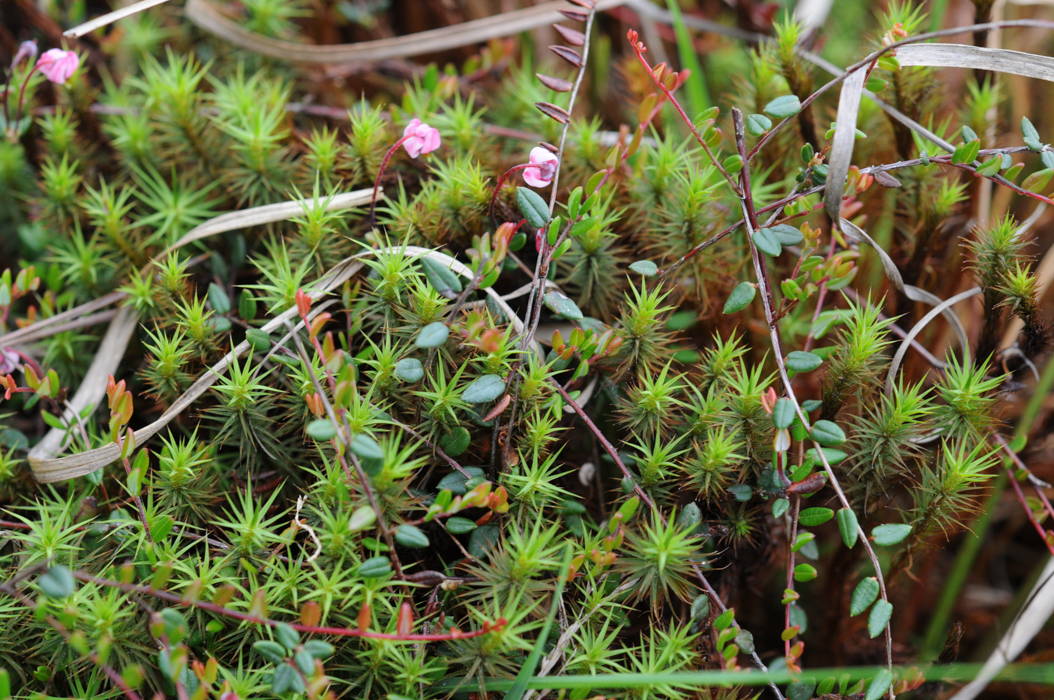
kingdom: Plantae
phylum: Tracheophyta
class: Magnoliopsida
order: Ericales
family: Ericaceae
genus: Vaccinium
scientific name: Vaccinium oxycoccos
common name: Cranberry
